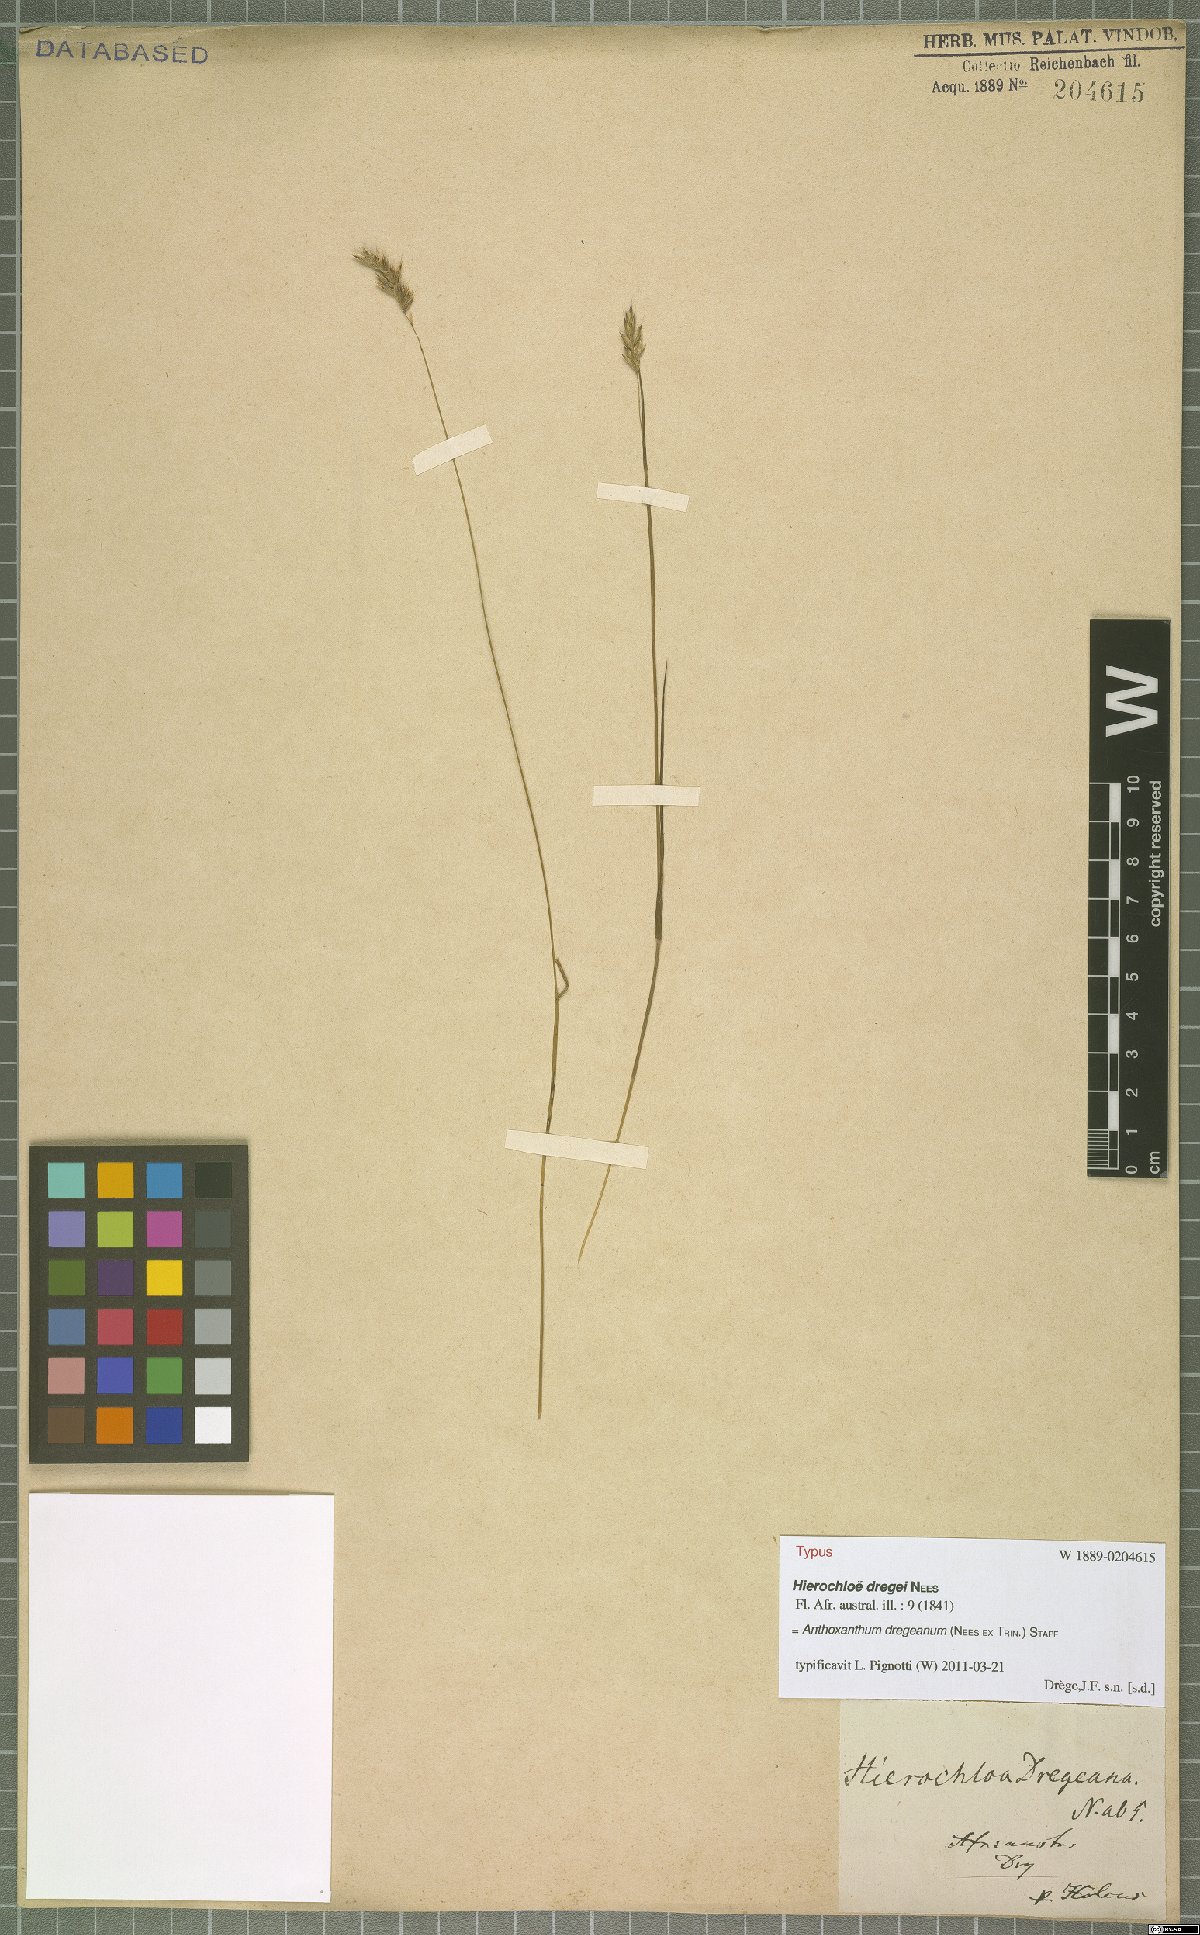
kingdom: Plantae
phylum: Tracheophyta
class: Liliopsida
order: Poales
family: Poaceae
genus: Anthoxanthum
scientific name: Anthoxanthum dregeanum
